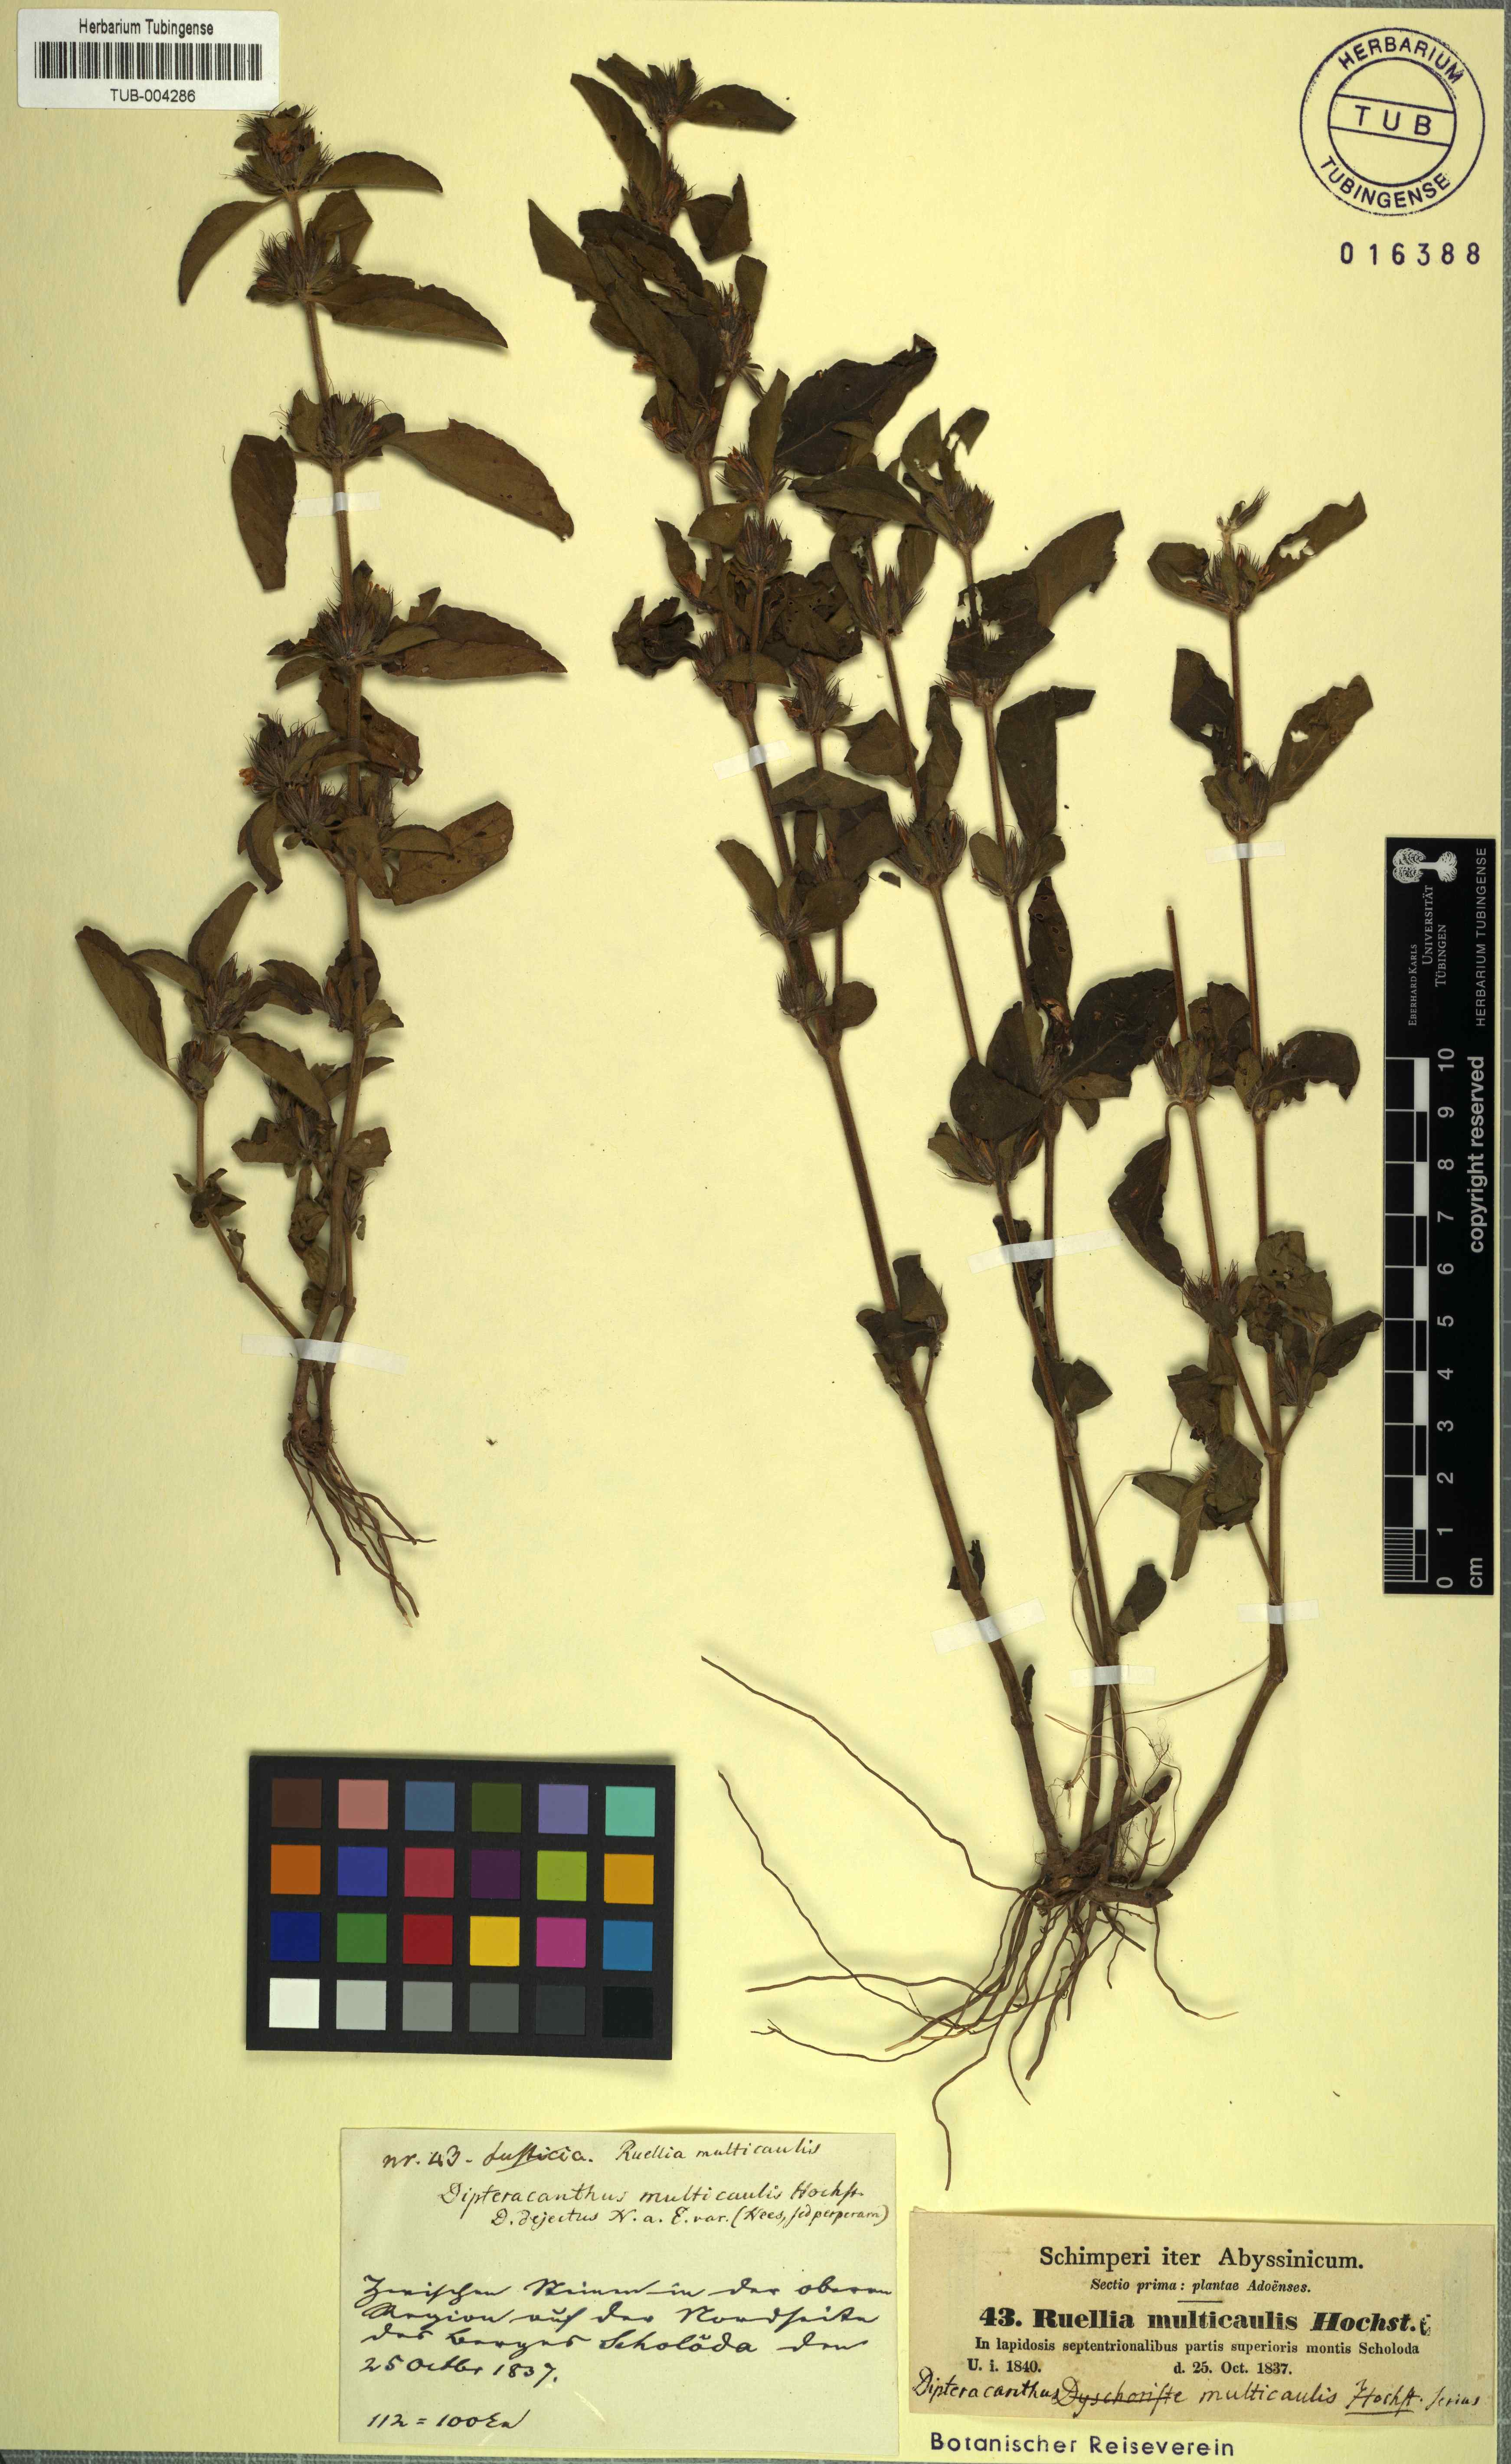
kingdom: Plantae
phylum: Tracheophyta
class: Magnoliopsida
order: Lamiales
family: Acanthaceae
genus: Dyschoriste
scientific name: Dyschoriste multicaulis
